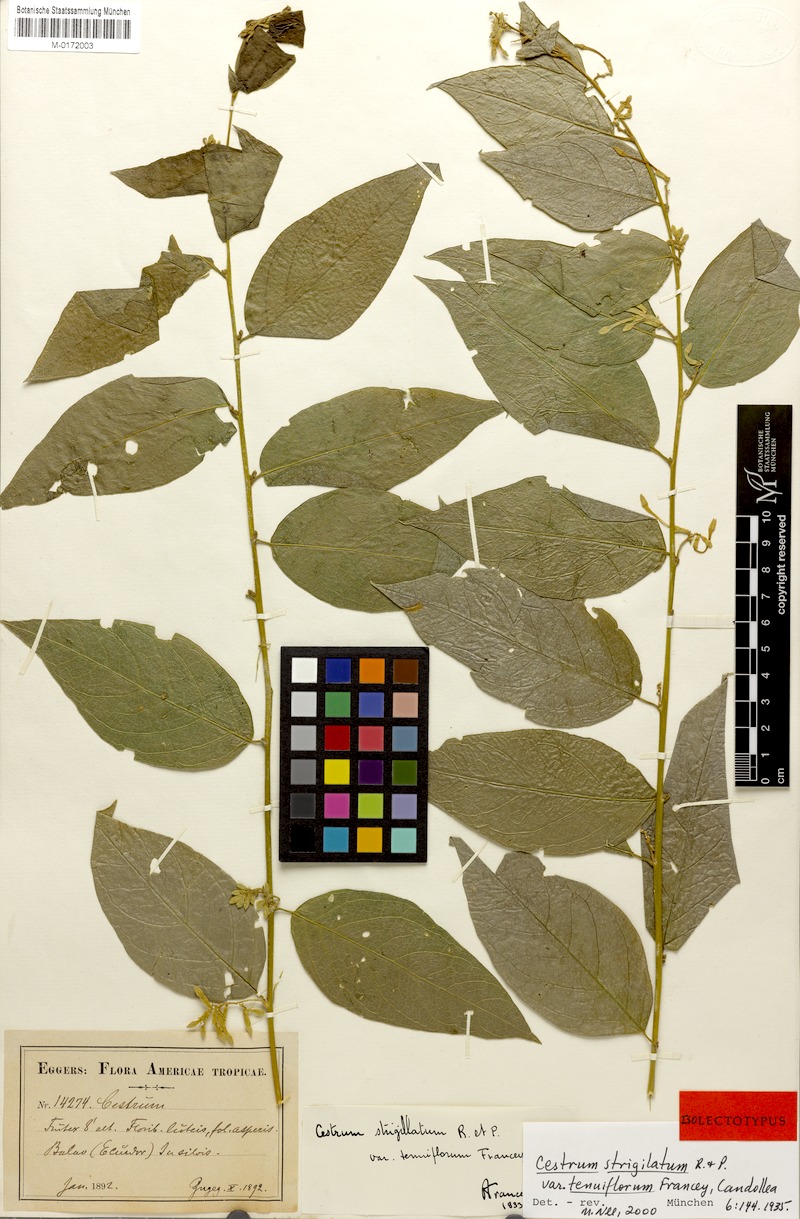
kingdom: Plantae
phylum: Tracheophyta
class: Magnoliopsida
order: Solanales
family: Solanaceae
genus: Cestrum
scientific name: Cestrum strigillatum
